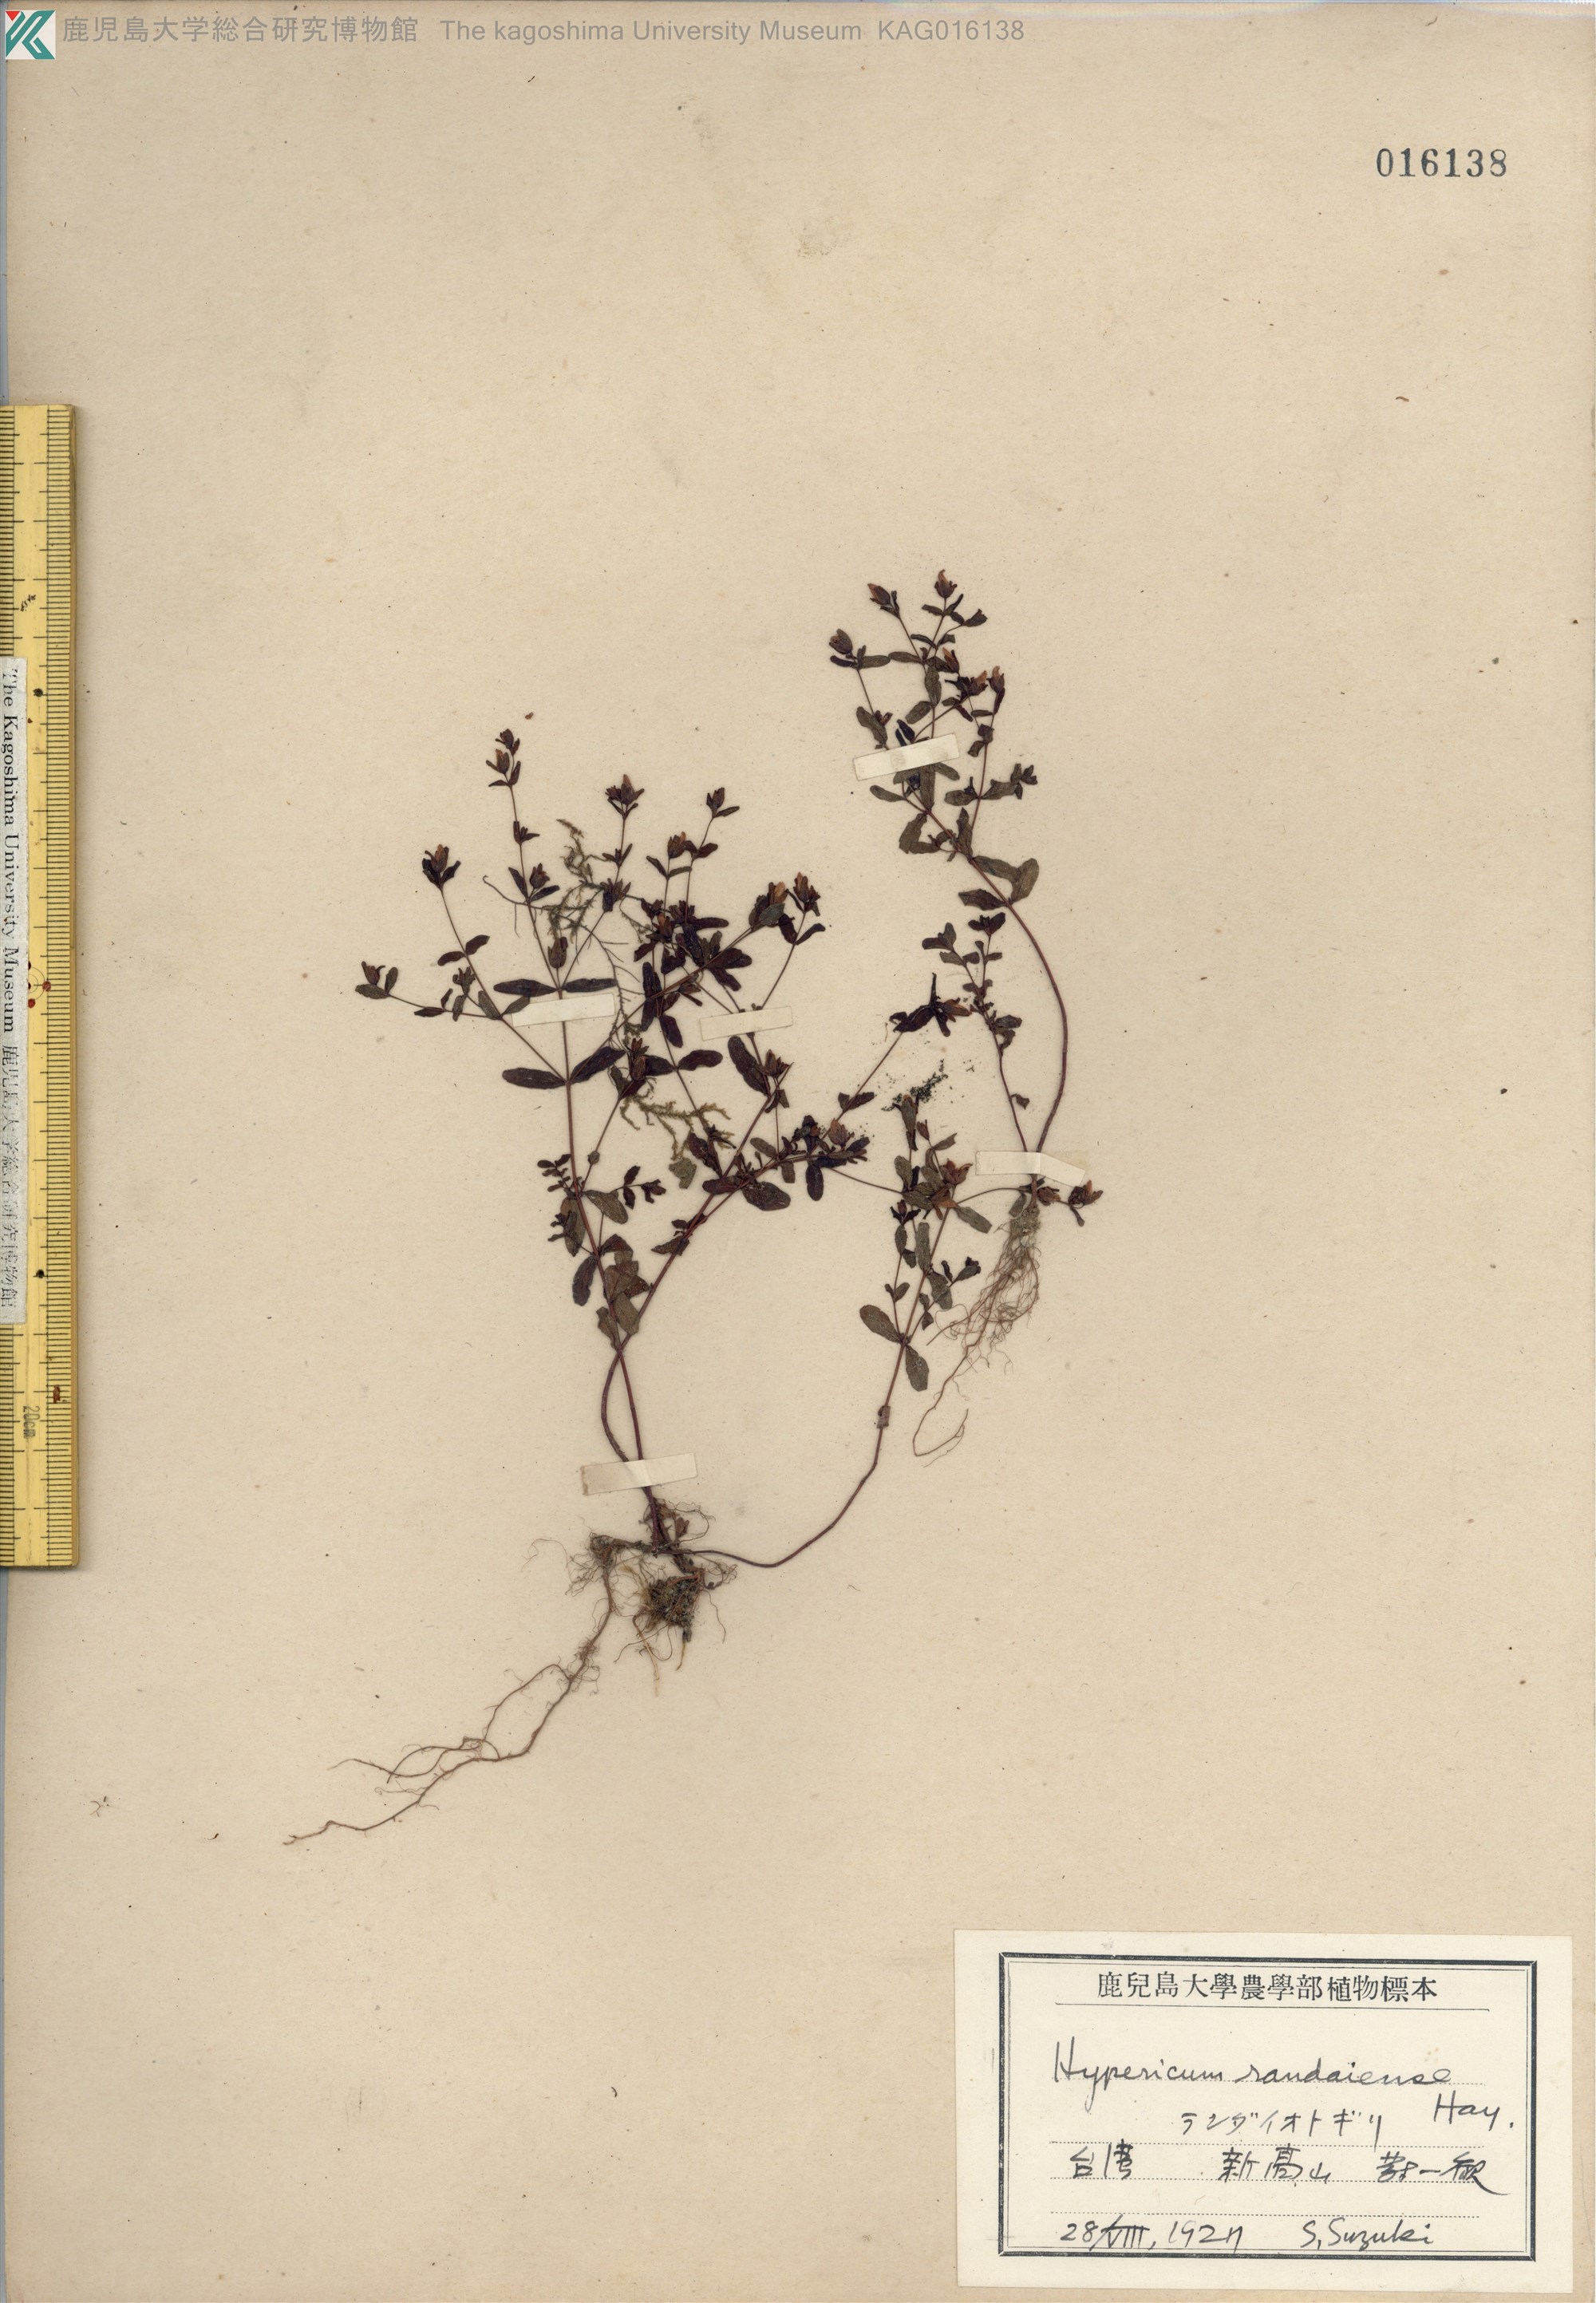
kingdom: Plantae
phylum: Tracheophyta
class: Magnoliopsida
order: Malpighiales
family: Hypericaceae
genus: Hypericum
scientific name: Hypericum nagasawae
